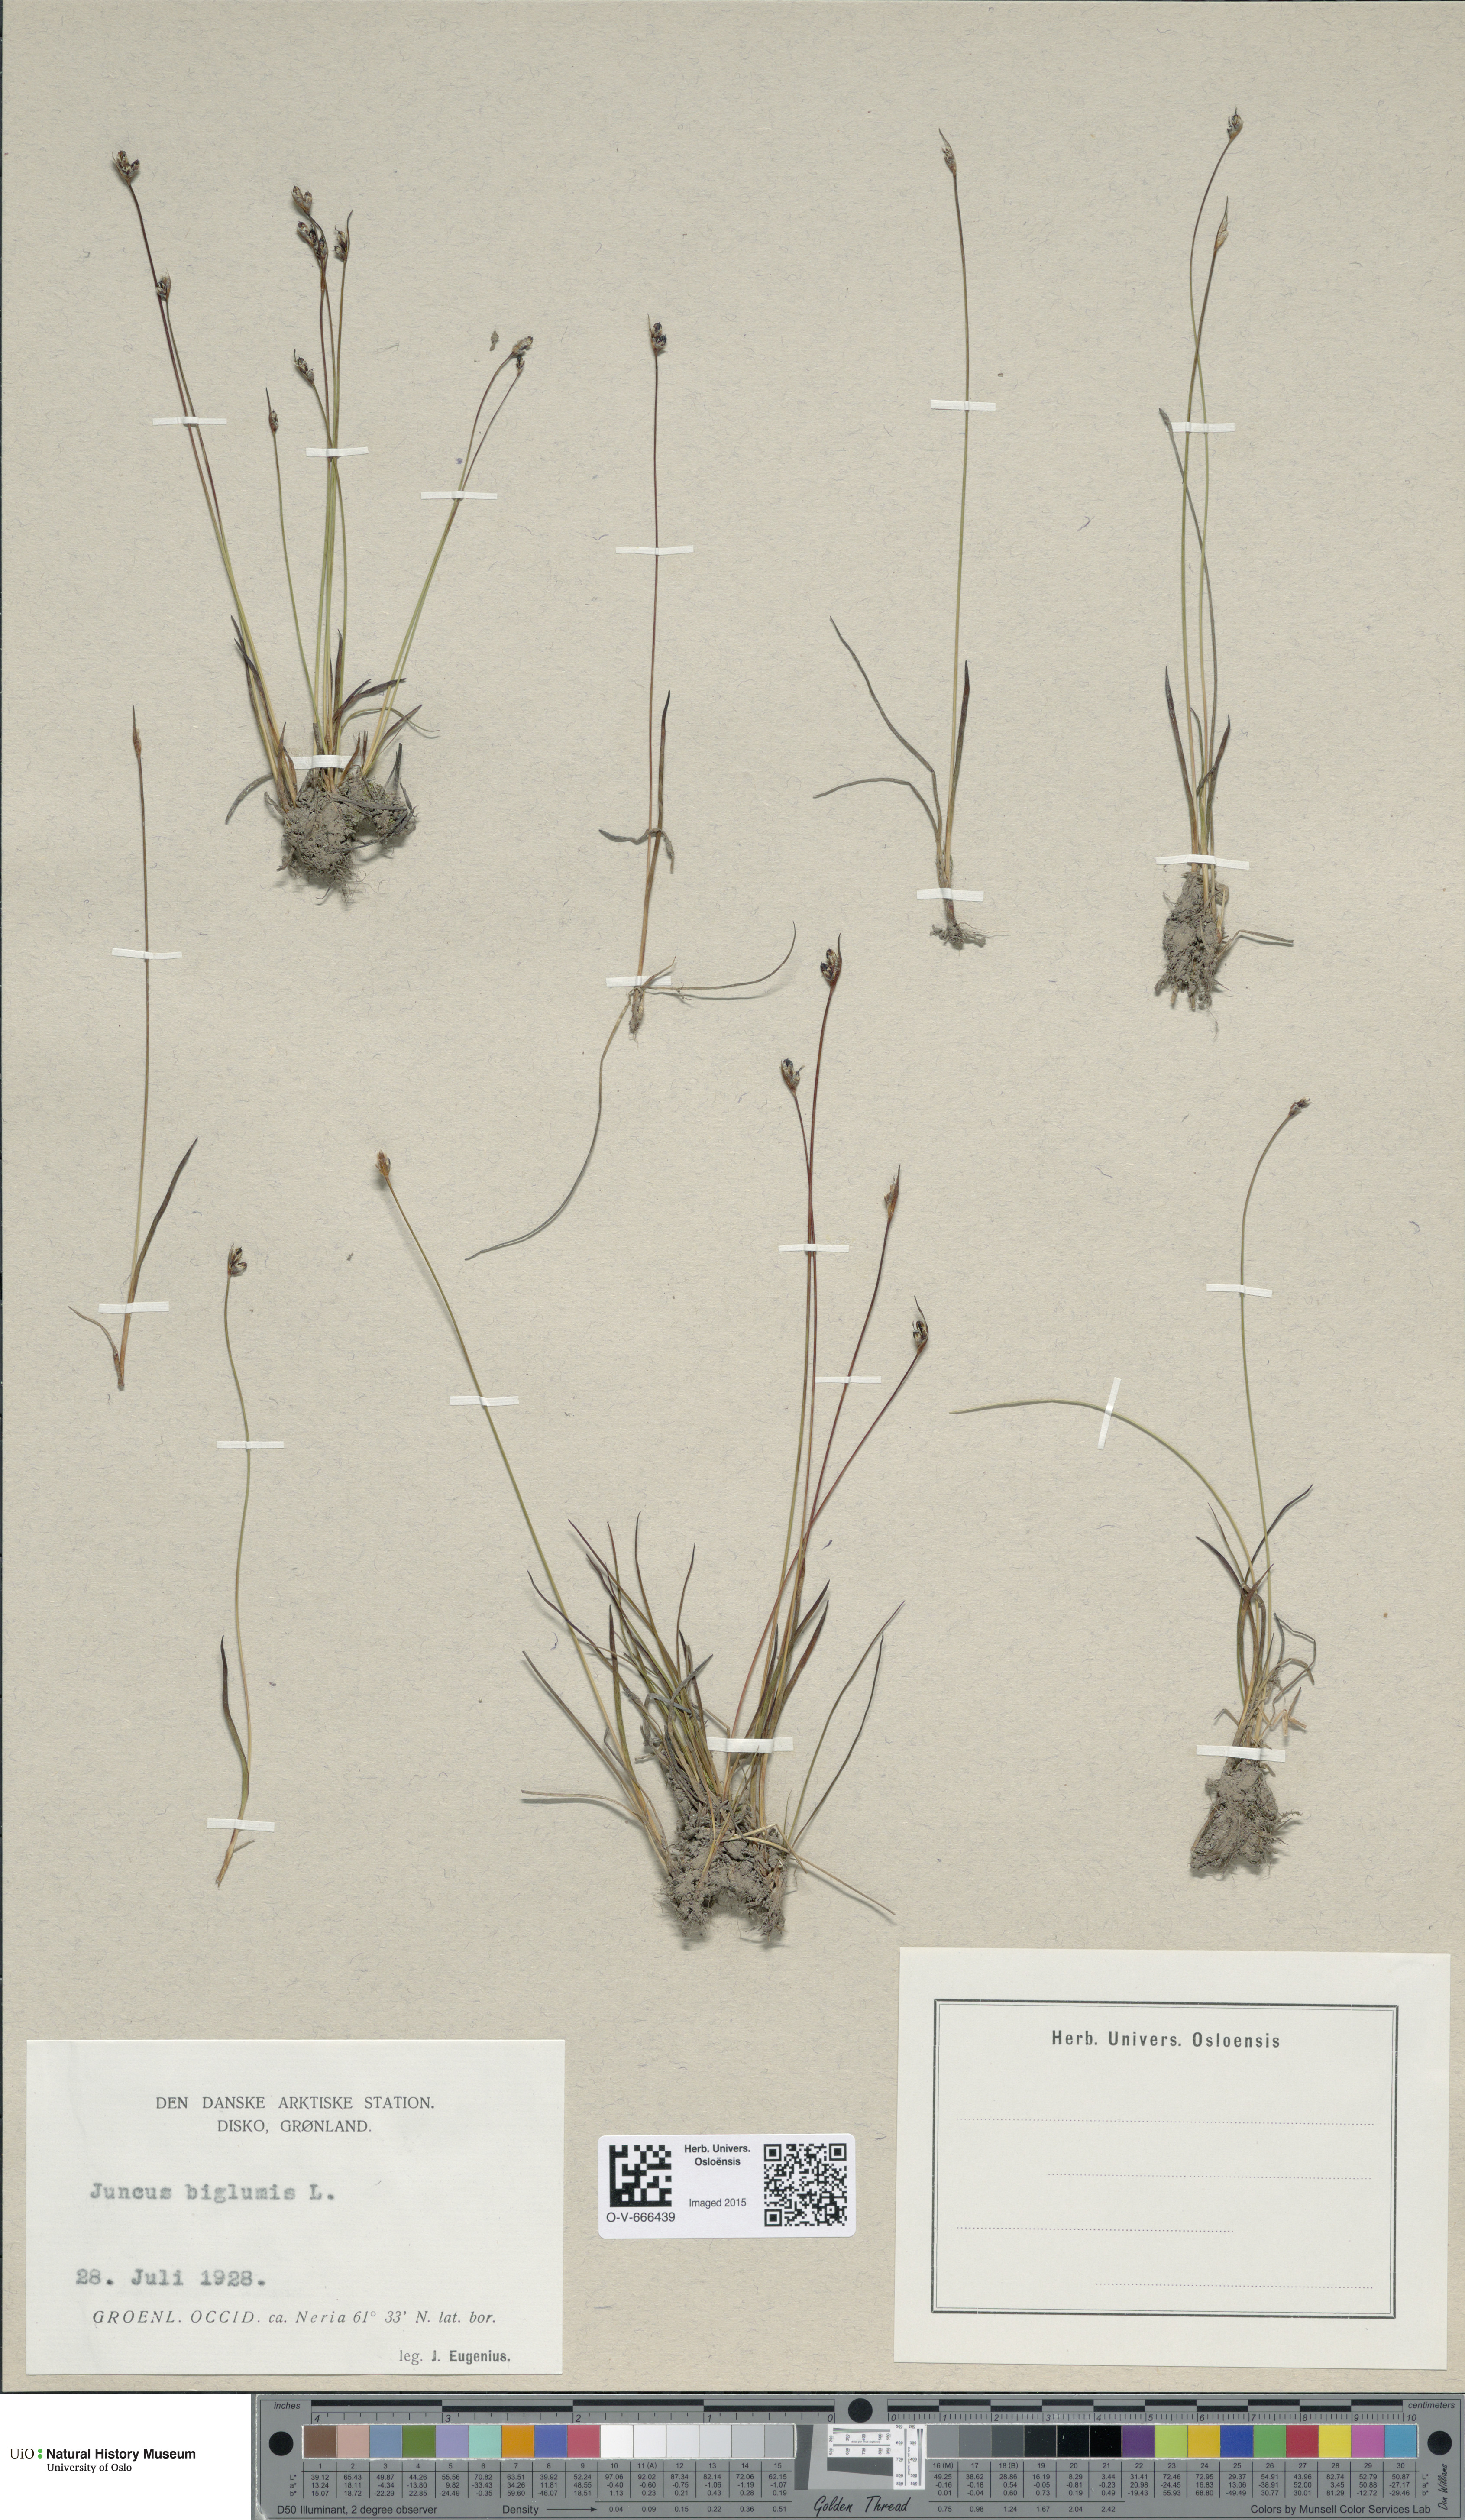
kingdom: Plantae
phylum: Tracheophyta
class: Liliopsida
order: Poales
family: Juncaceae
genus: Juncus
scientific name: Juncus biglumis
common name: Two-flowered rush
